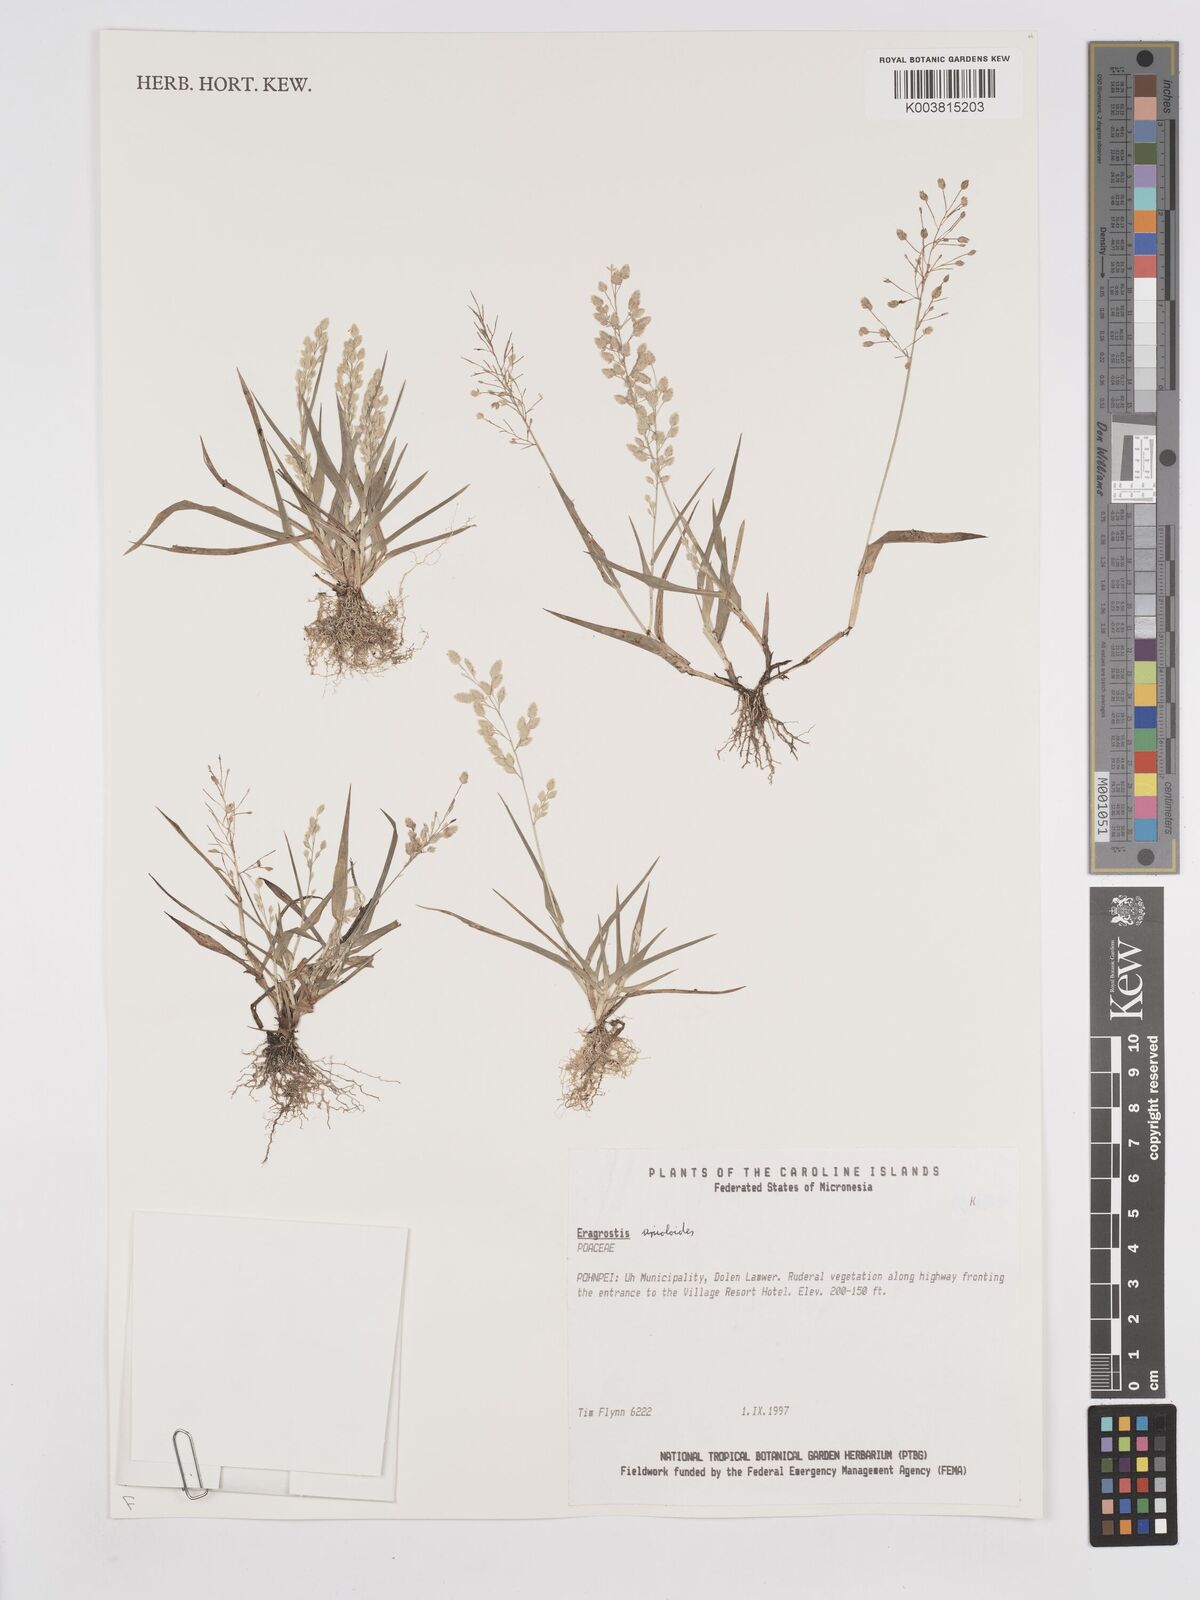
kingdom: Plantae
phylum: Tracheophyta
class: Liliopsida
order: Poales
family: Poaceae
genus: Eragrostis
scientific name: Eragrostis unioloides
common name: Chinese lovegrass
